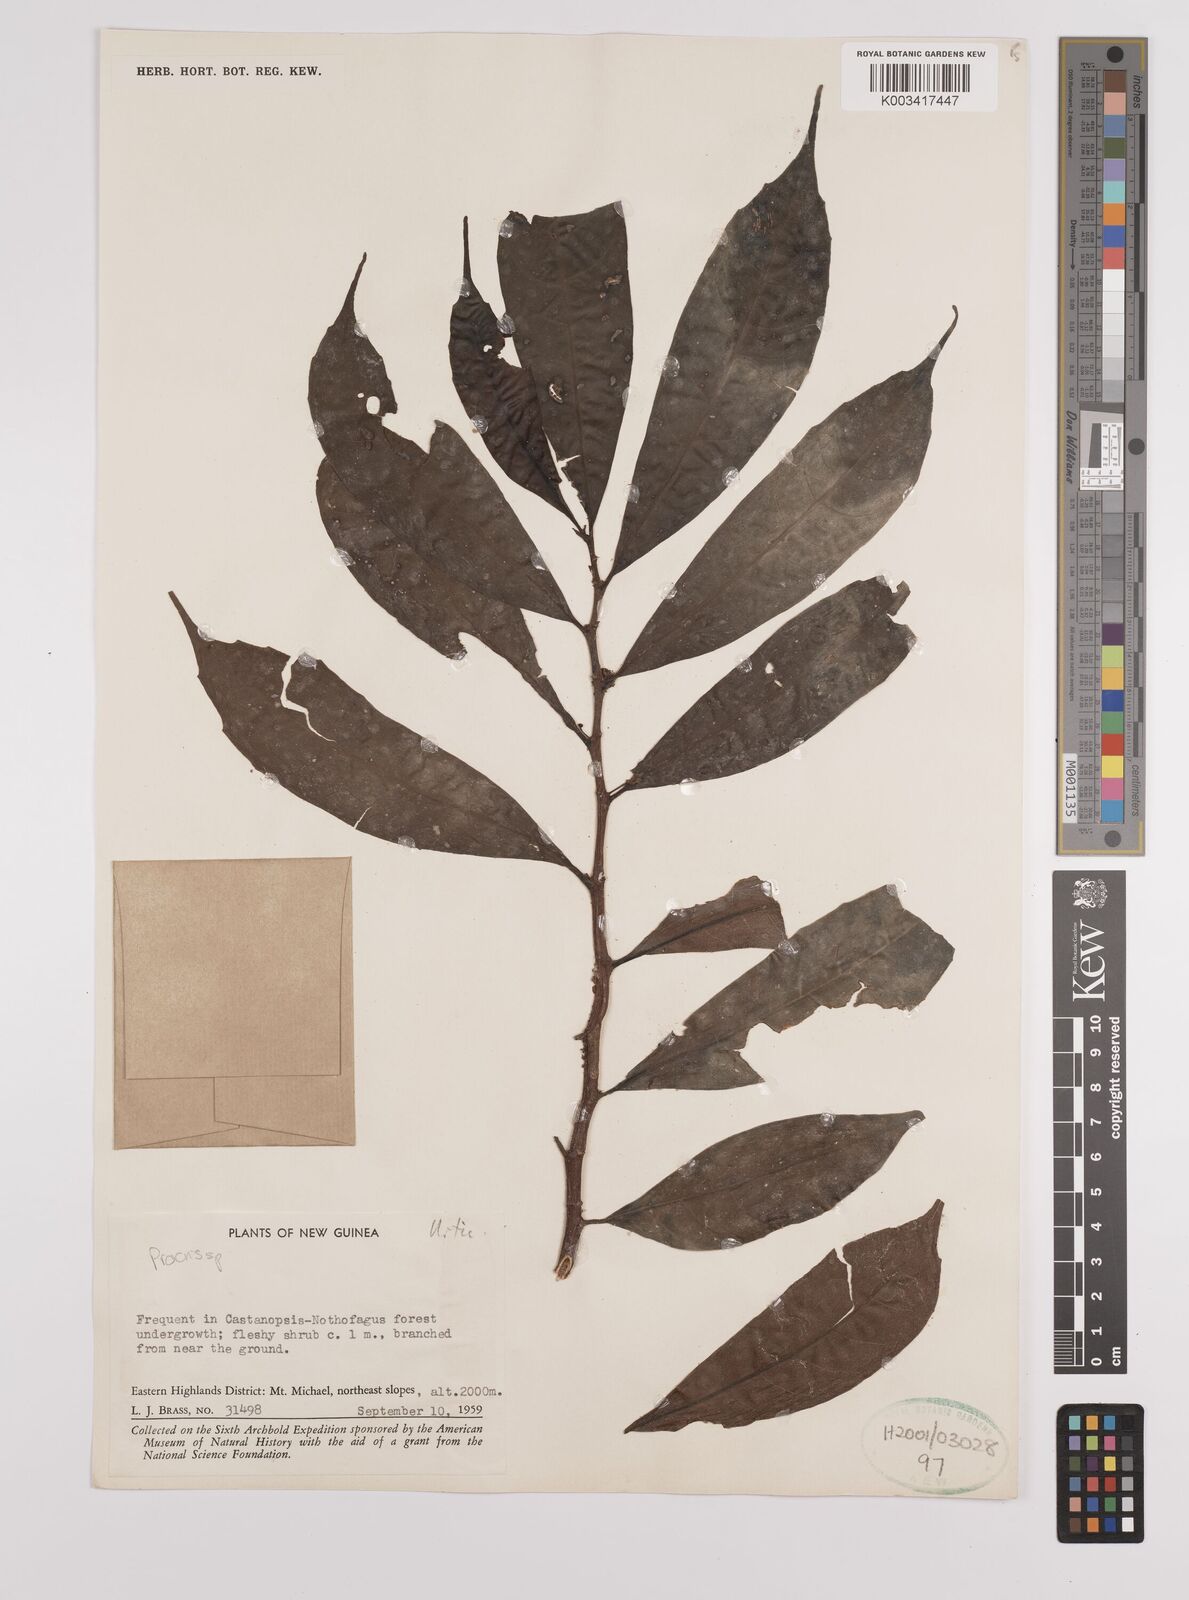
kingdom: Plantae
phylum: Tracheophyta
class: Magnoliopsida
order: Rosales
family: Urticaceae
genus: Procris
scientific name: Procris
